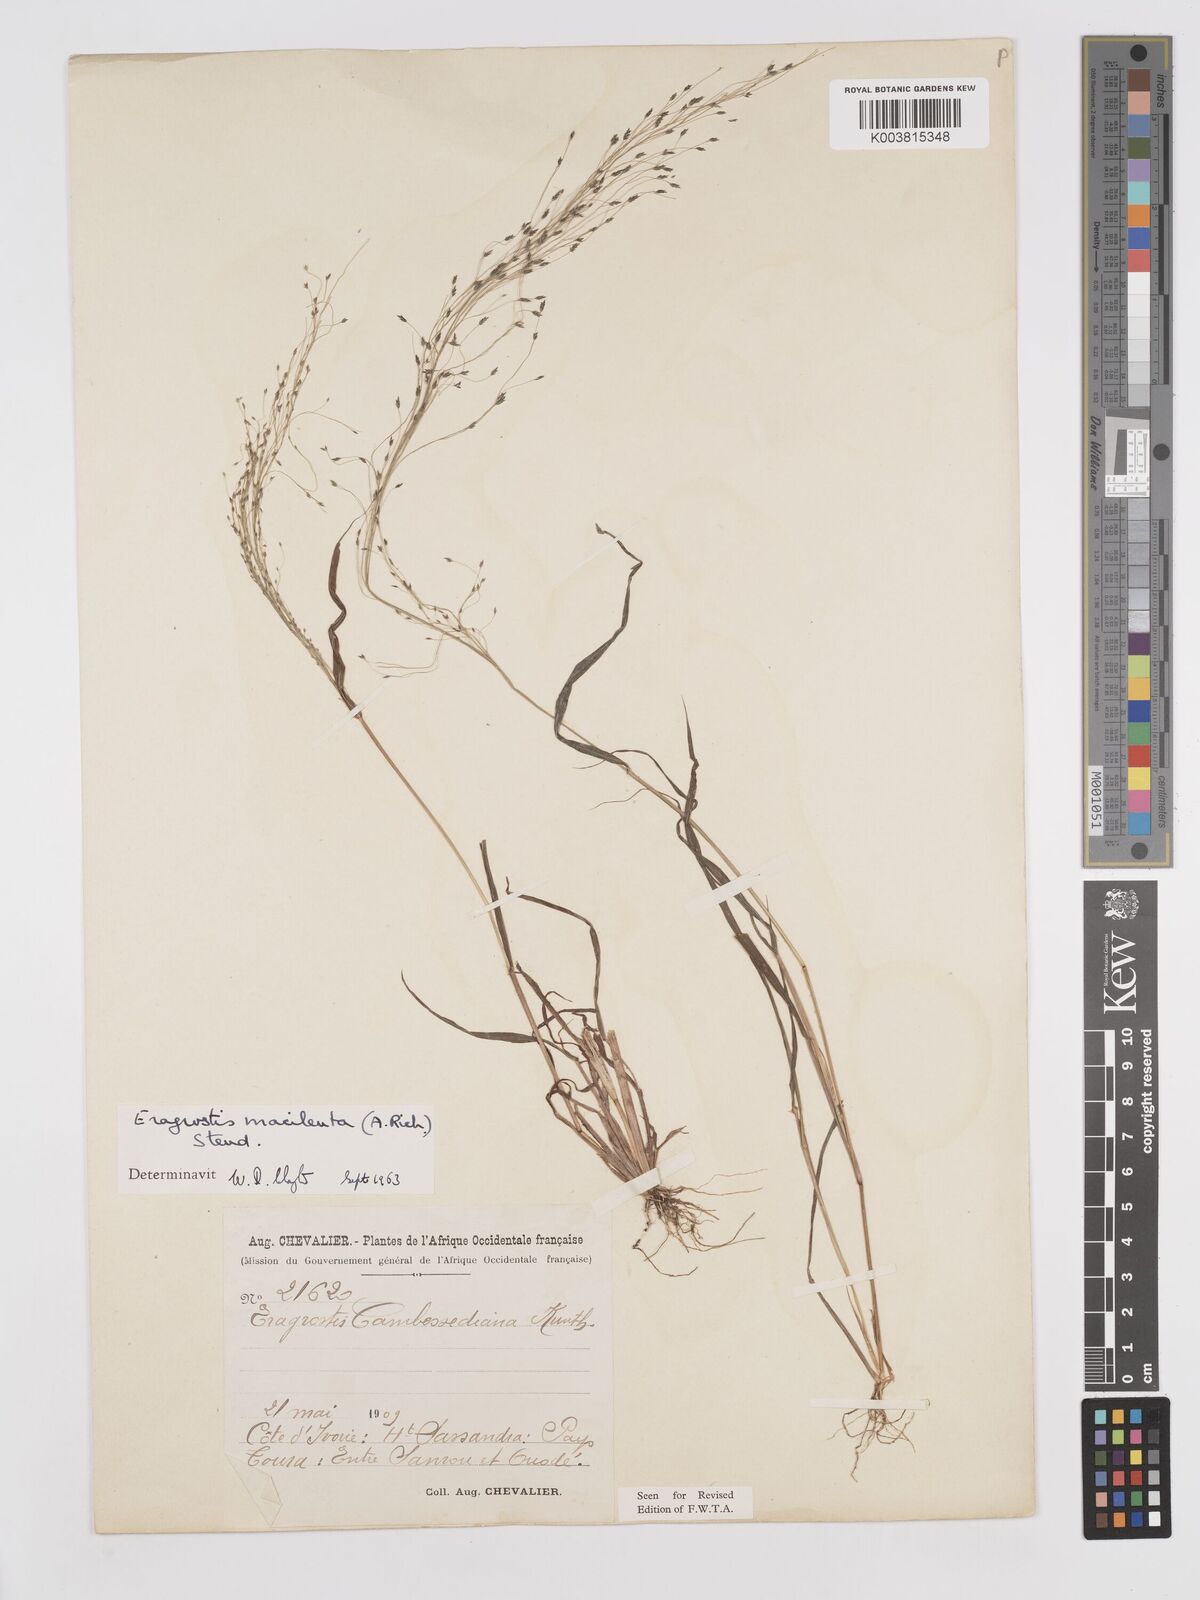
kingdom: Plantae
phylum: Tracheophyta
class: Liliopsida
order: Poales
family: Poaceae
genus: Eragrostis
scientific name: Eragrostis macilenta
